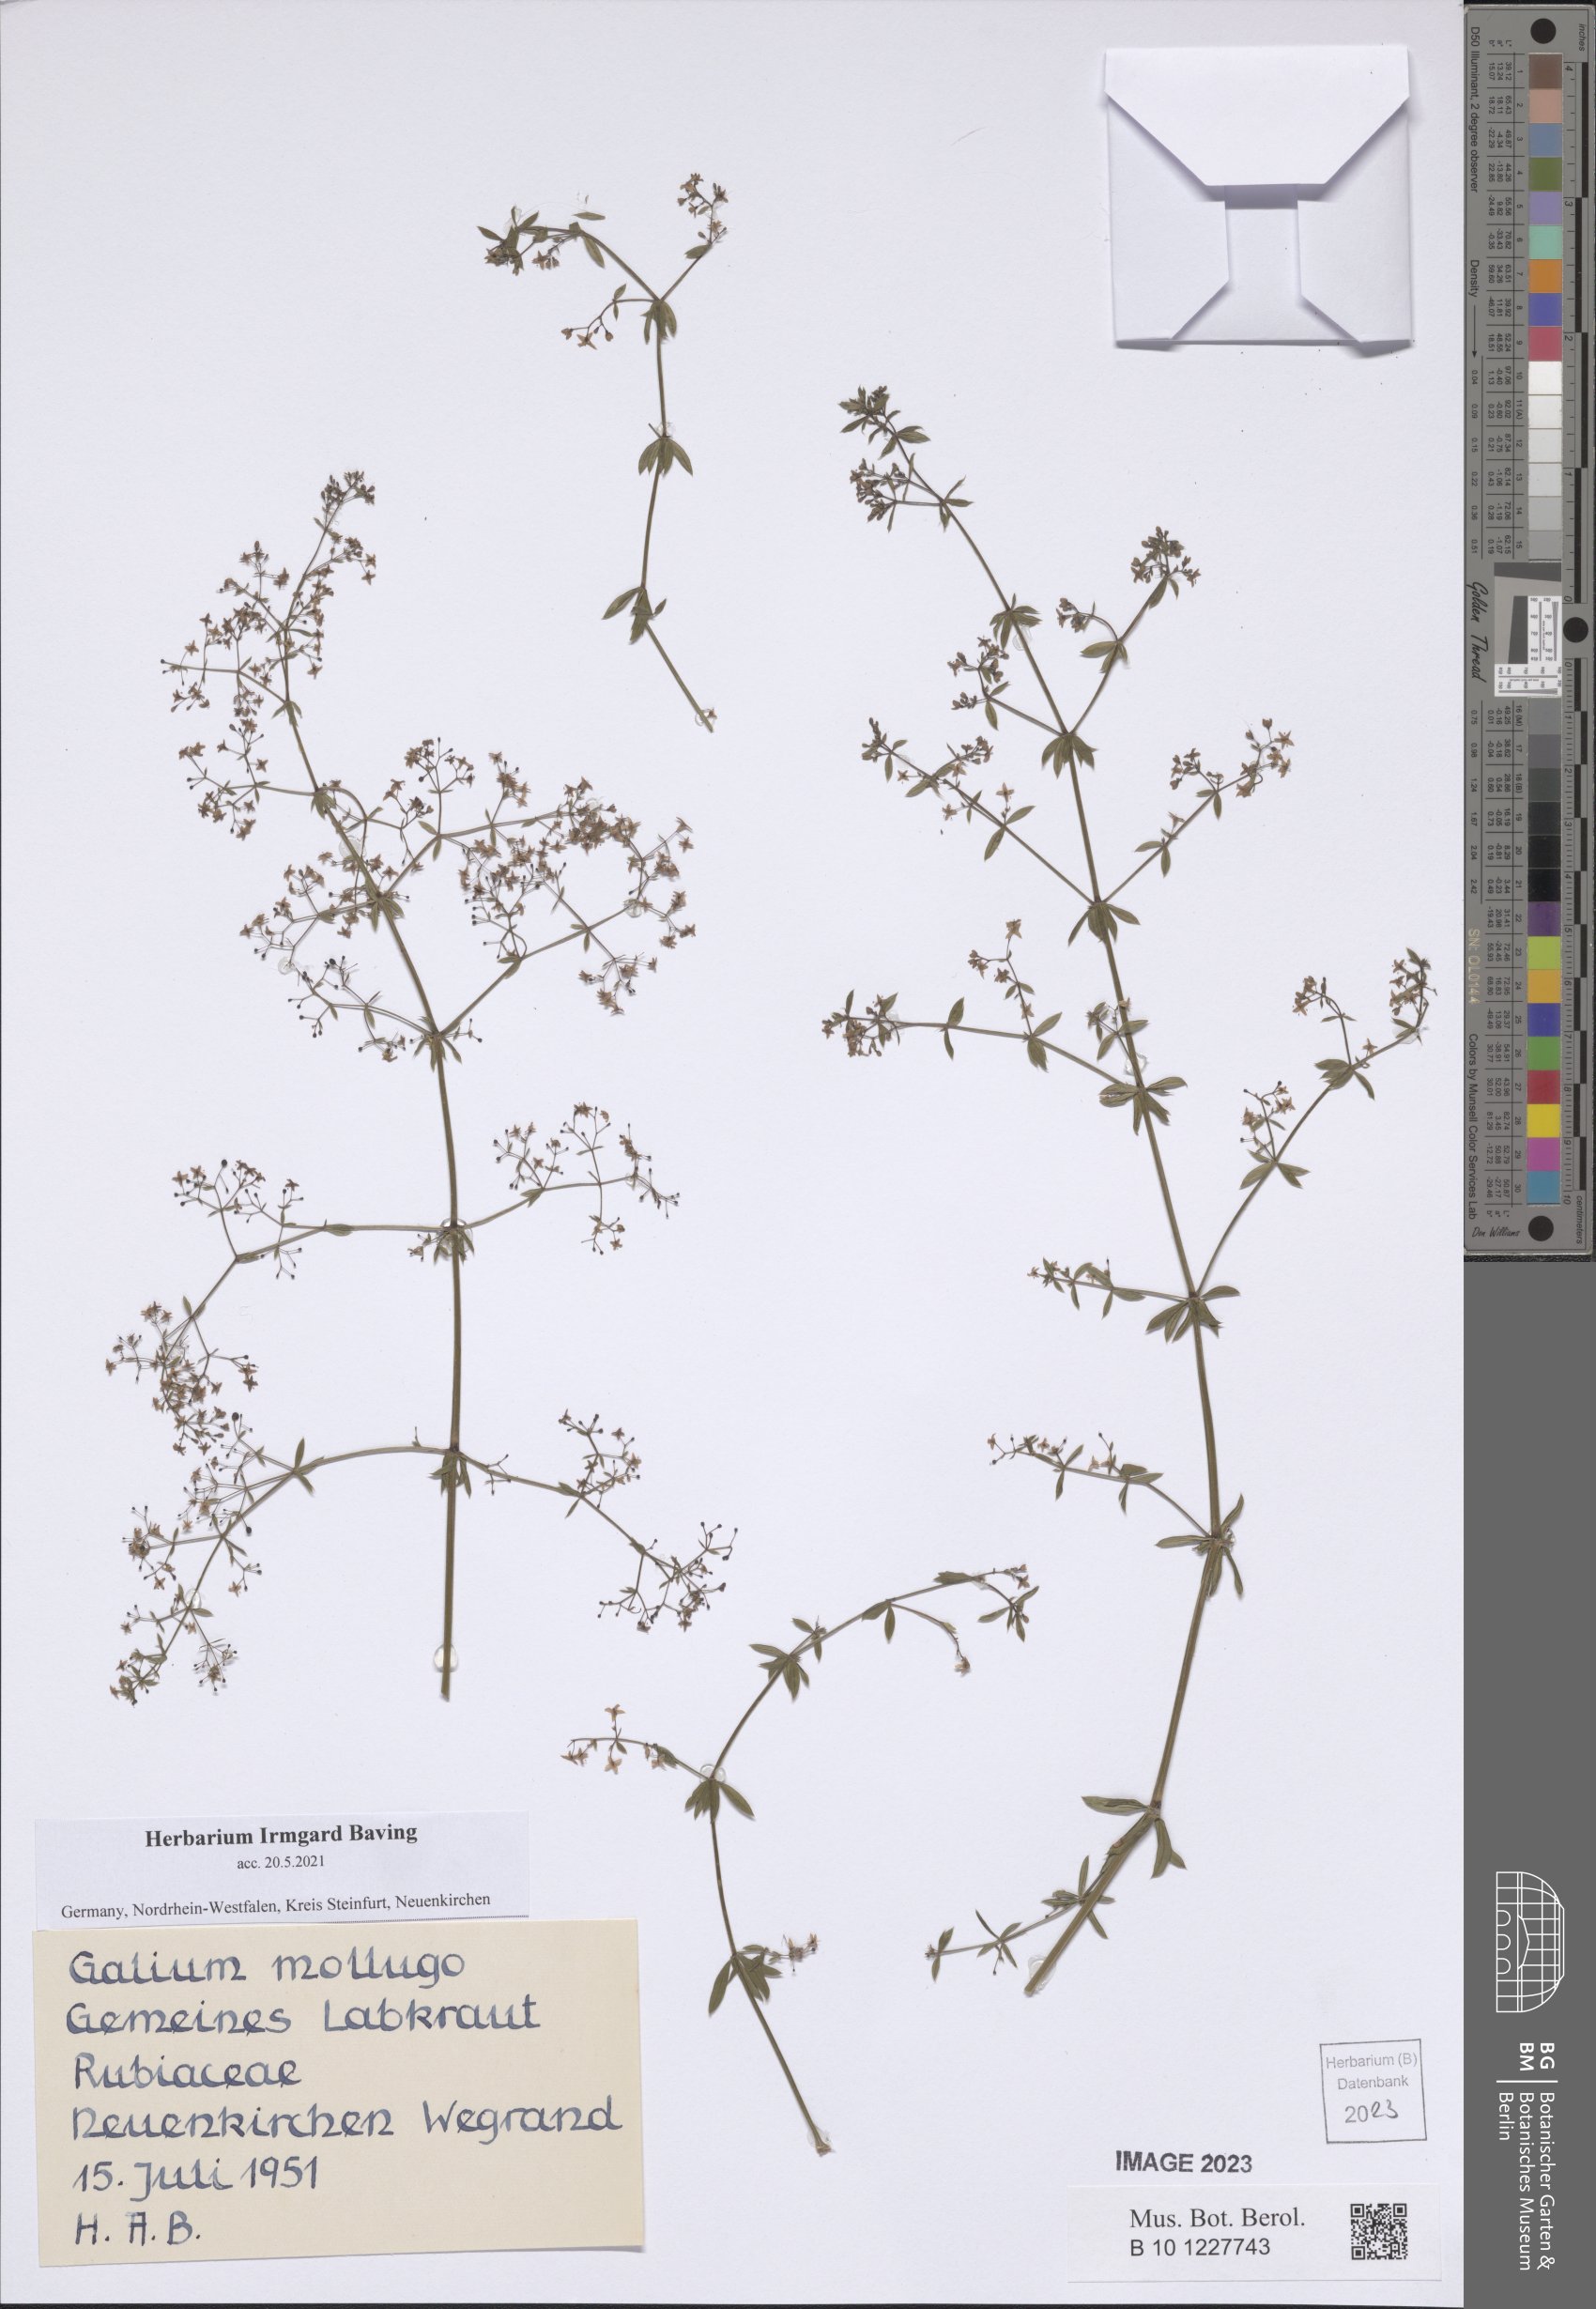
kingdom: Plantae
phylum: Tracheophyta
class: Magnoliopsida
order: Gentianales
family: Rubiaceae
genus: Galium
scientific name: Galium mollugo
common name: Hedge bedstraw
